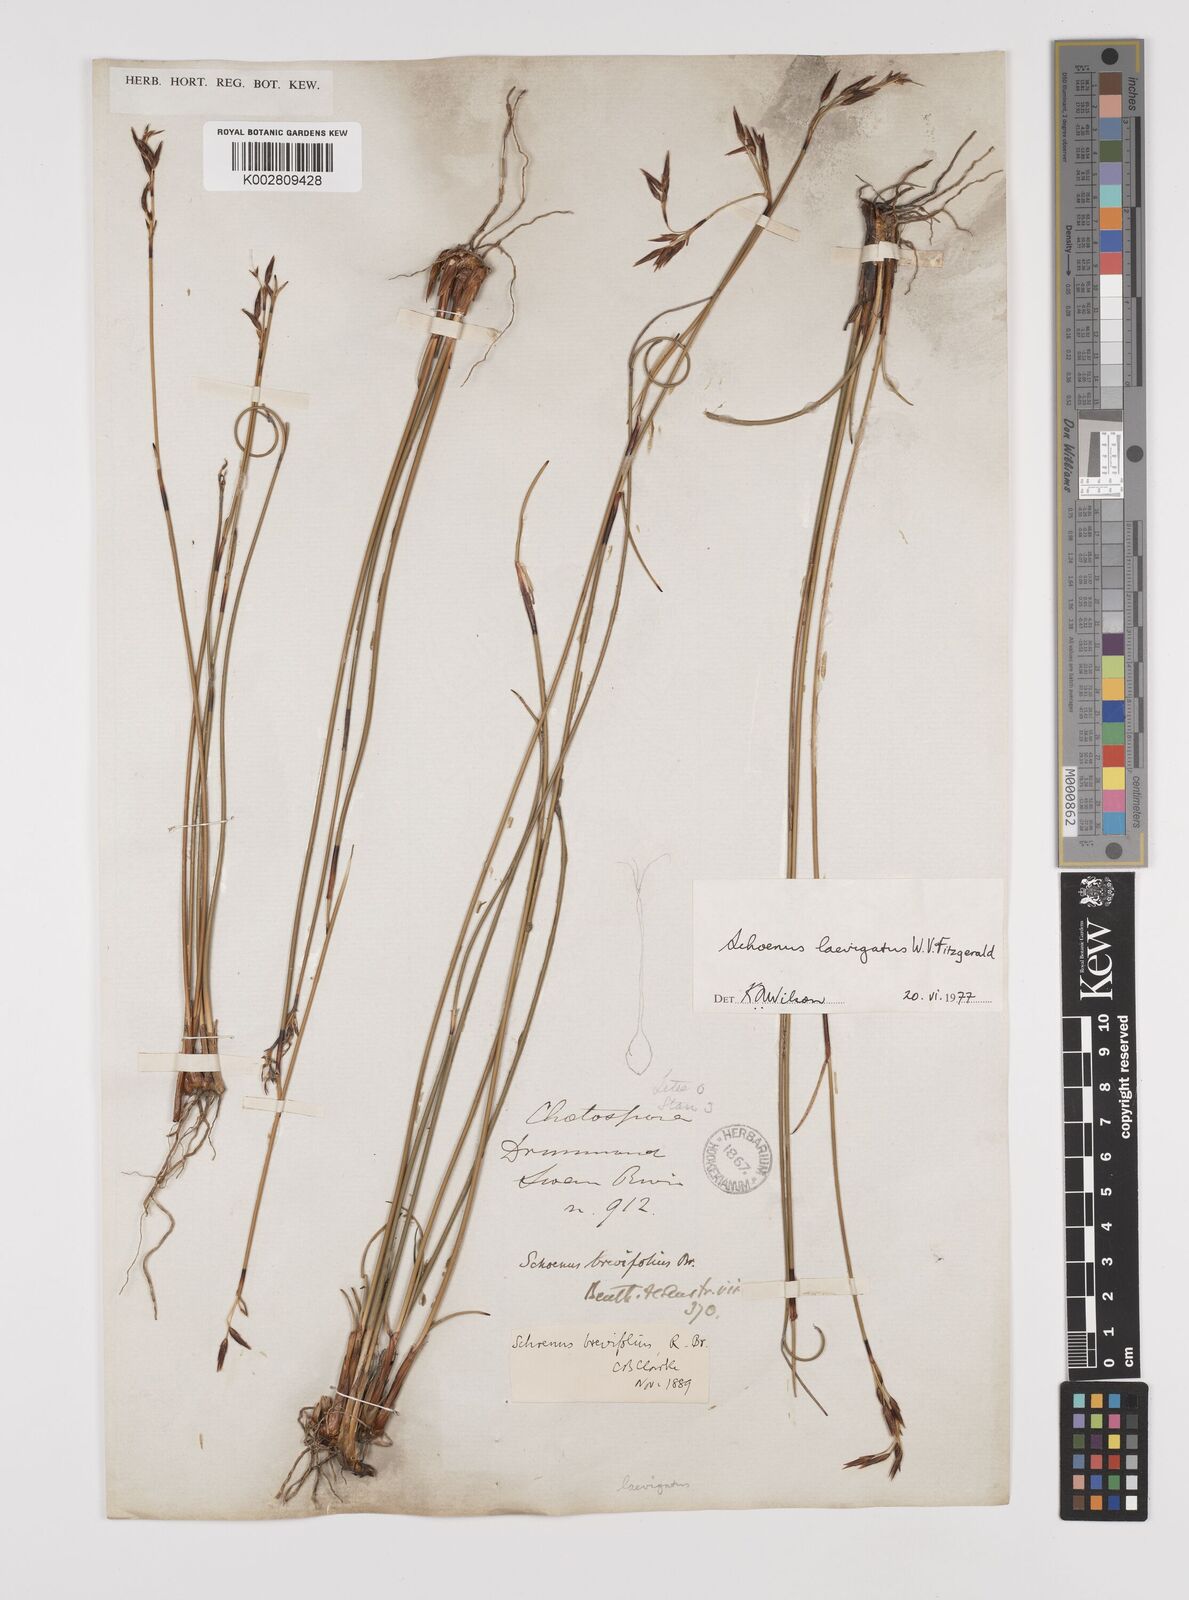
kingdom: Plantae
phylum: Tracheophyta
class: Liliopsida
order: Poales
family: Cyperaceae
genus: Schoenus
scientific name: Schoenus laevigatus
